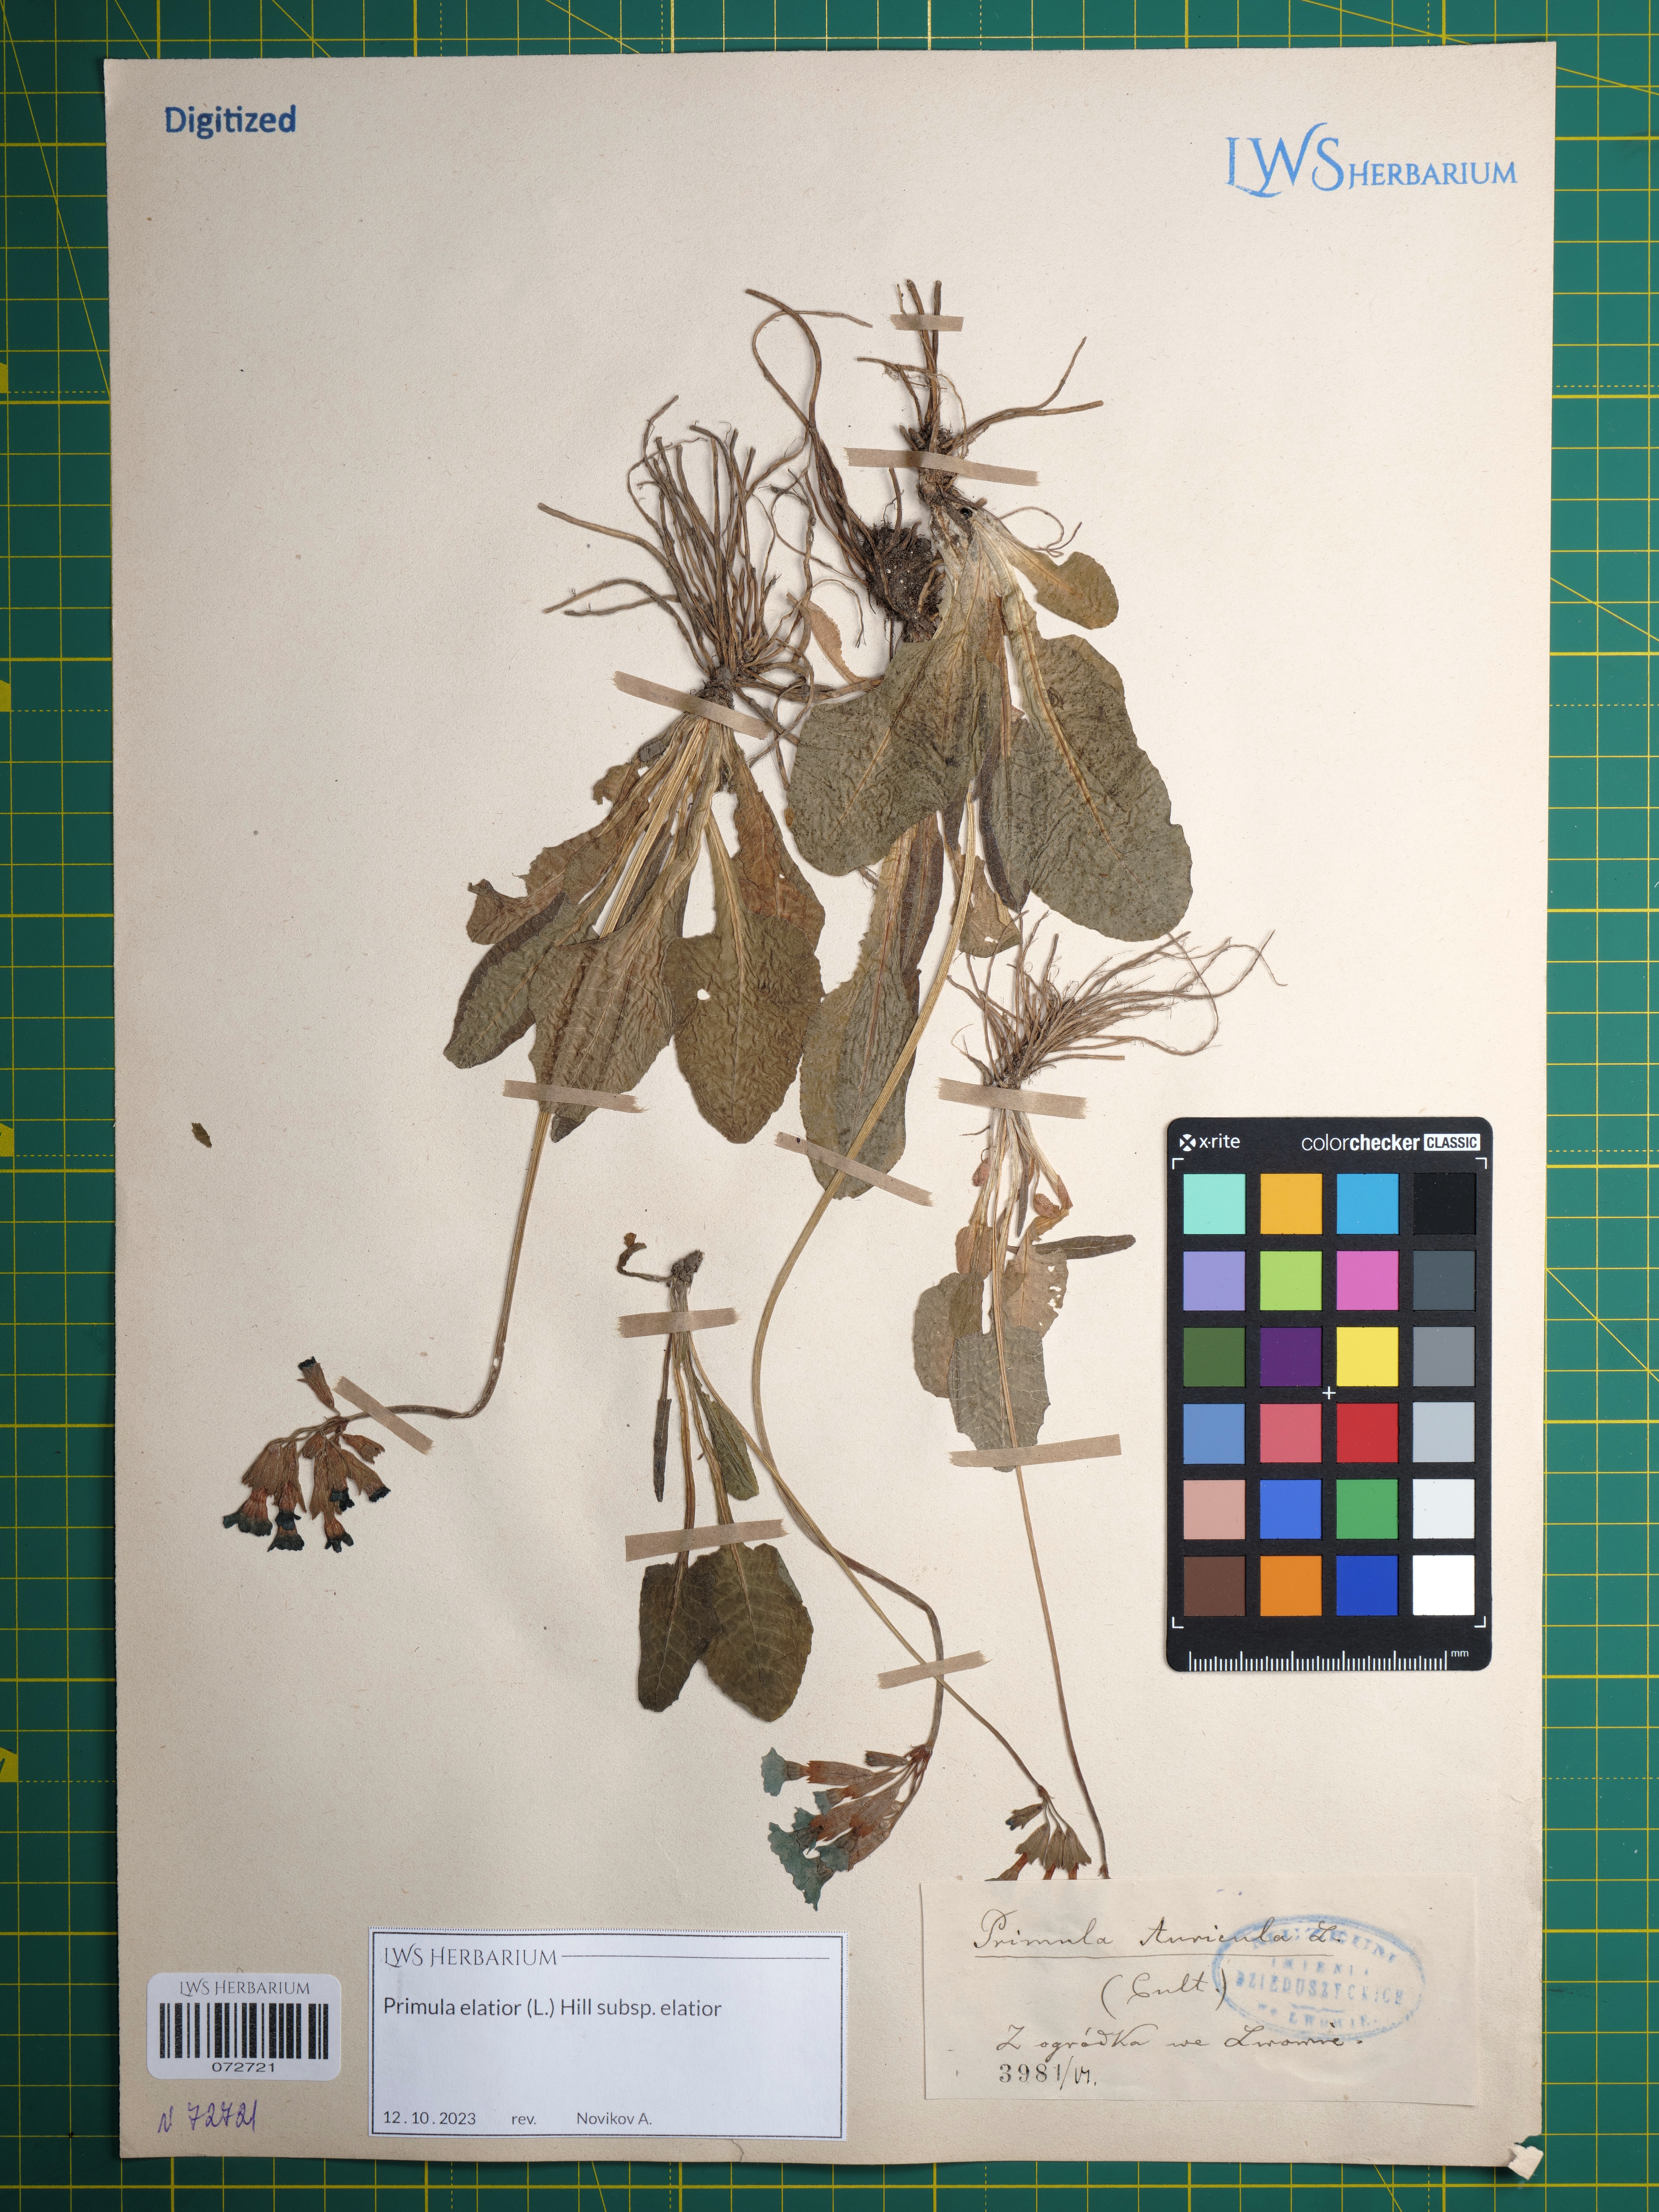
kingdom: Plantae
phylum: Tracheophyta
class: Magnoliopsida
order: Ericales
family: Primulaceae
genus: Primula
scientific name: Primula elatior
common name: Oxlip
